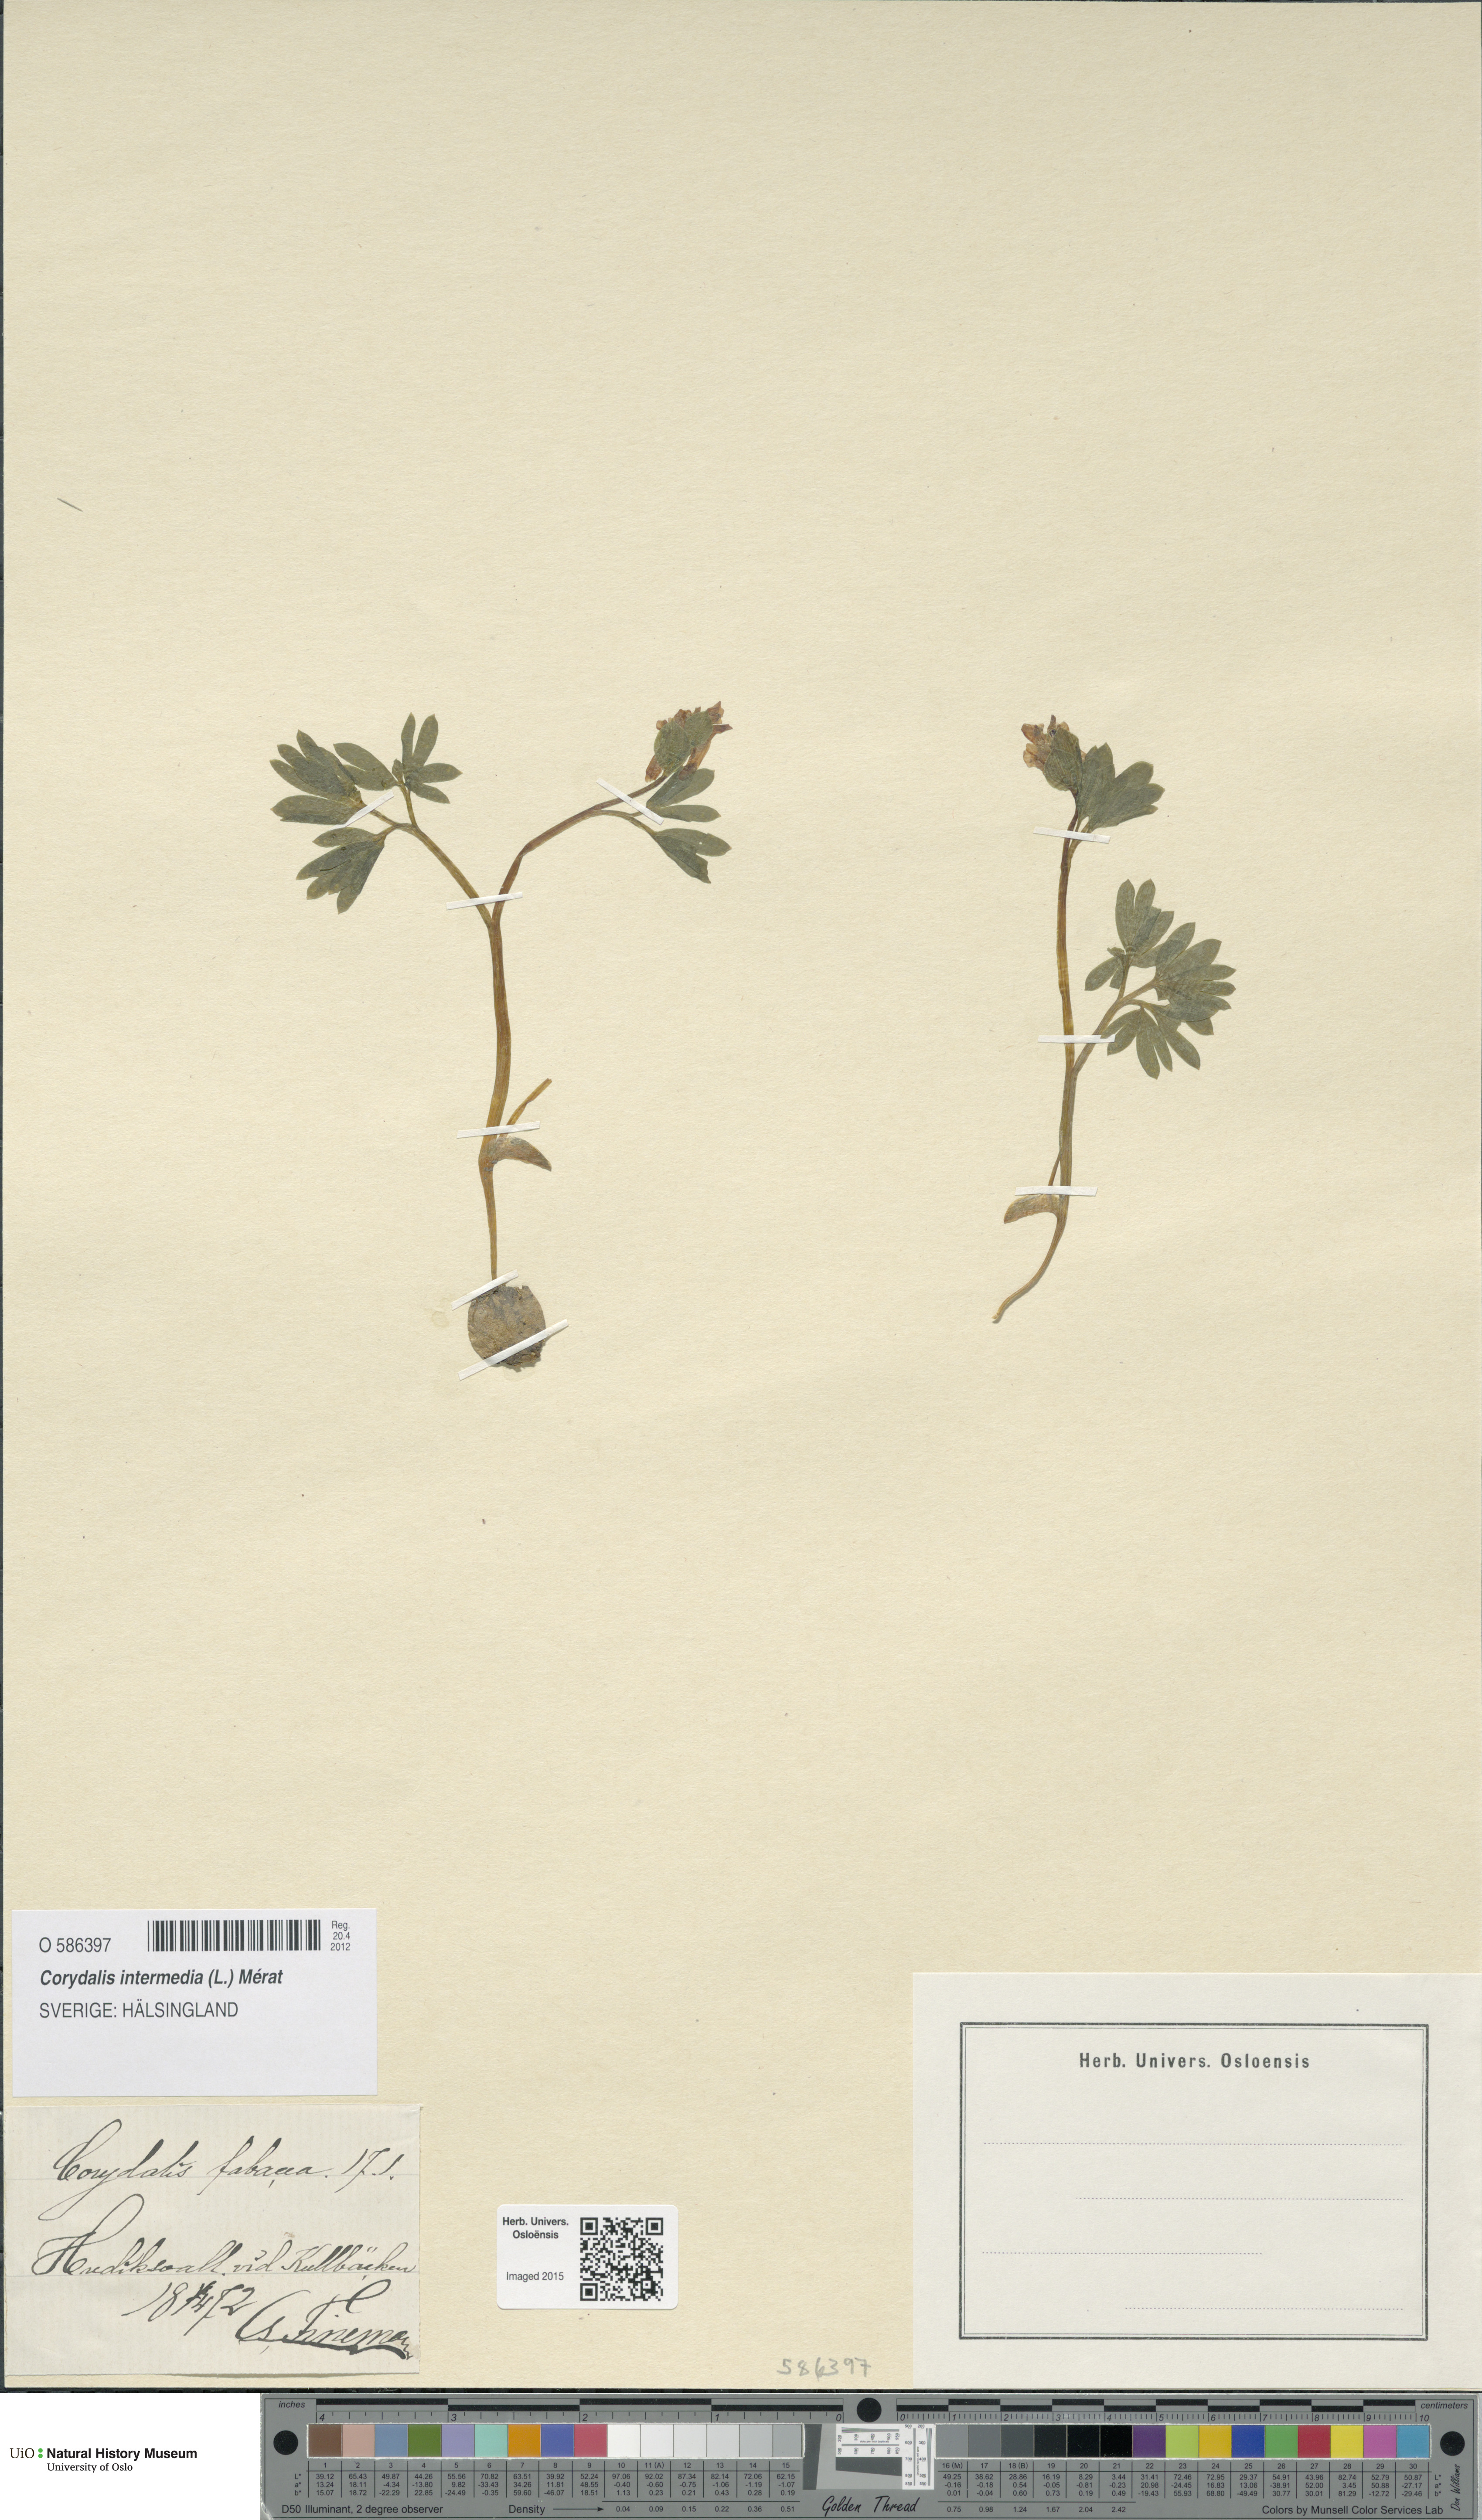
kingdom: Plantae
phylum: Tracheophyta
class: Magnoliopsida
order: Ranunculales
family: Papaveraceae
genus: Corydalis
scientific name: Corydalis intermedia
